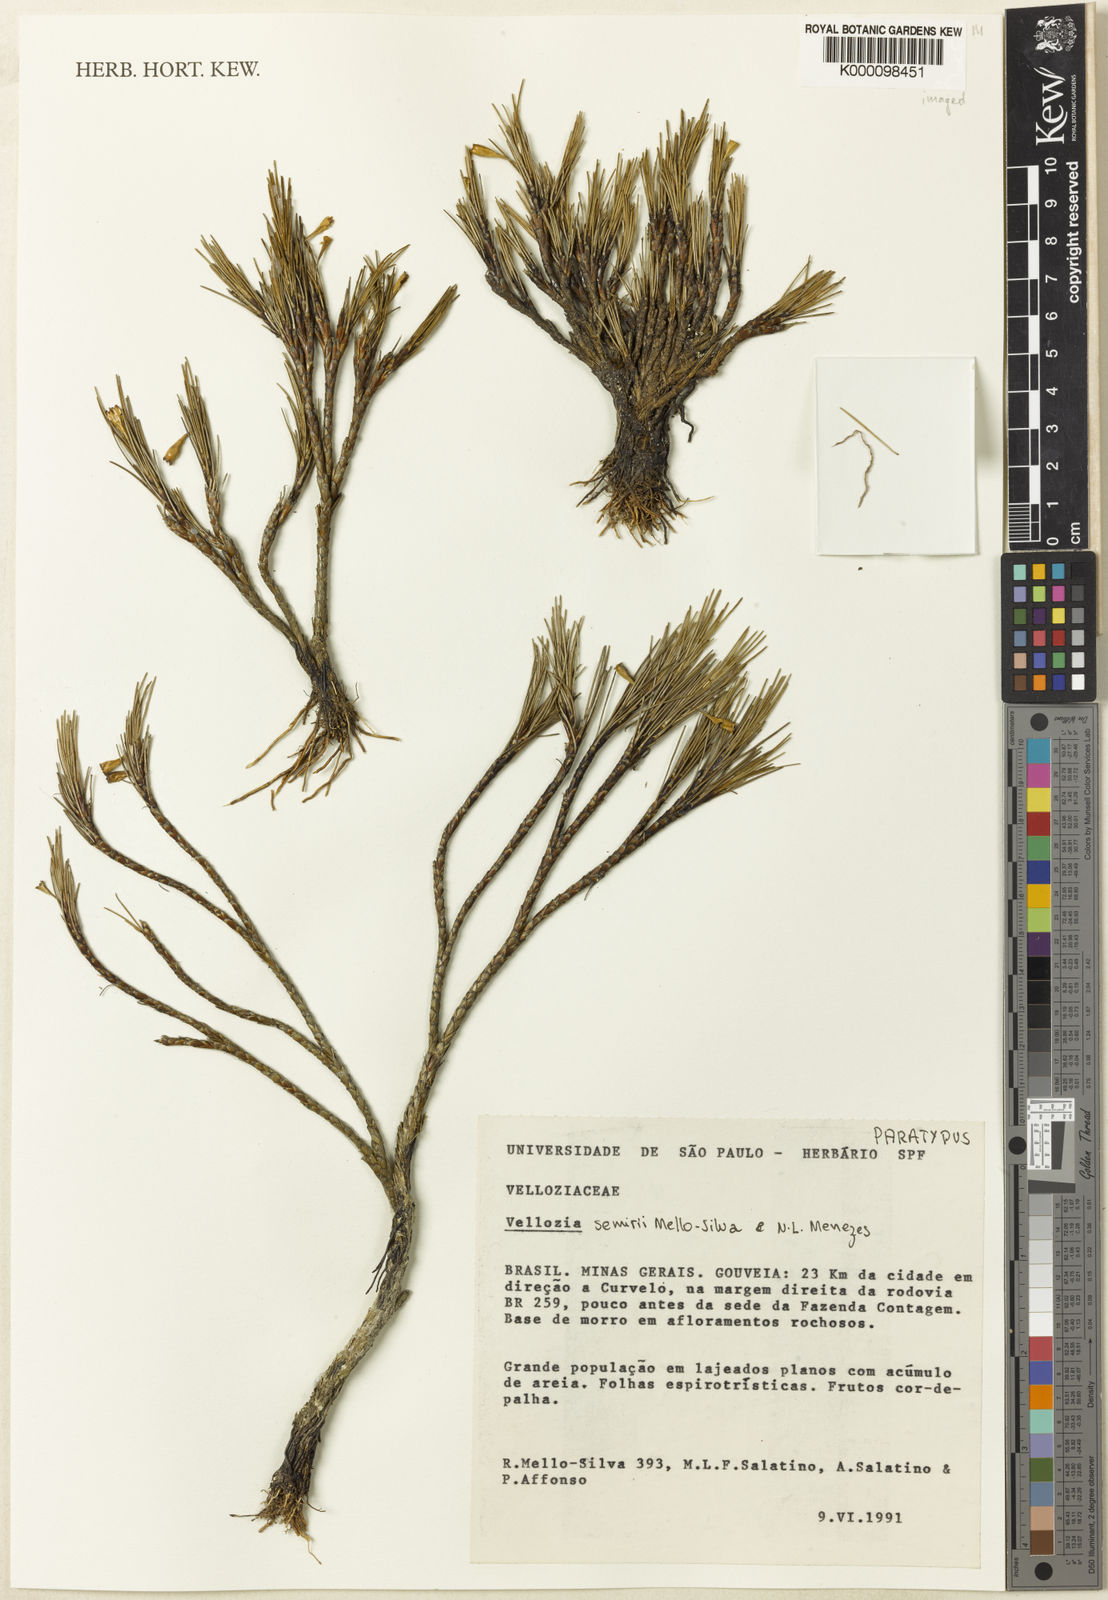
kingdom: Plantae
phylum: Tracheophyta
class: Liliopsida
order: Pandanales
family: Velloziaceae
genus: Vellozia
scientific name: Vellozia semirii
